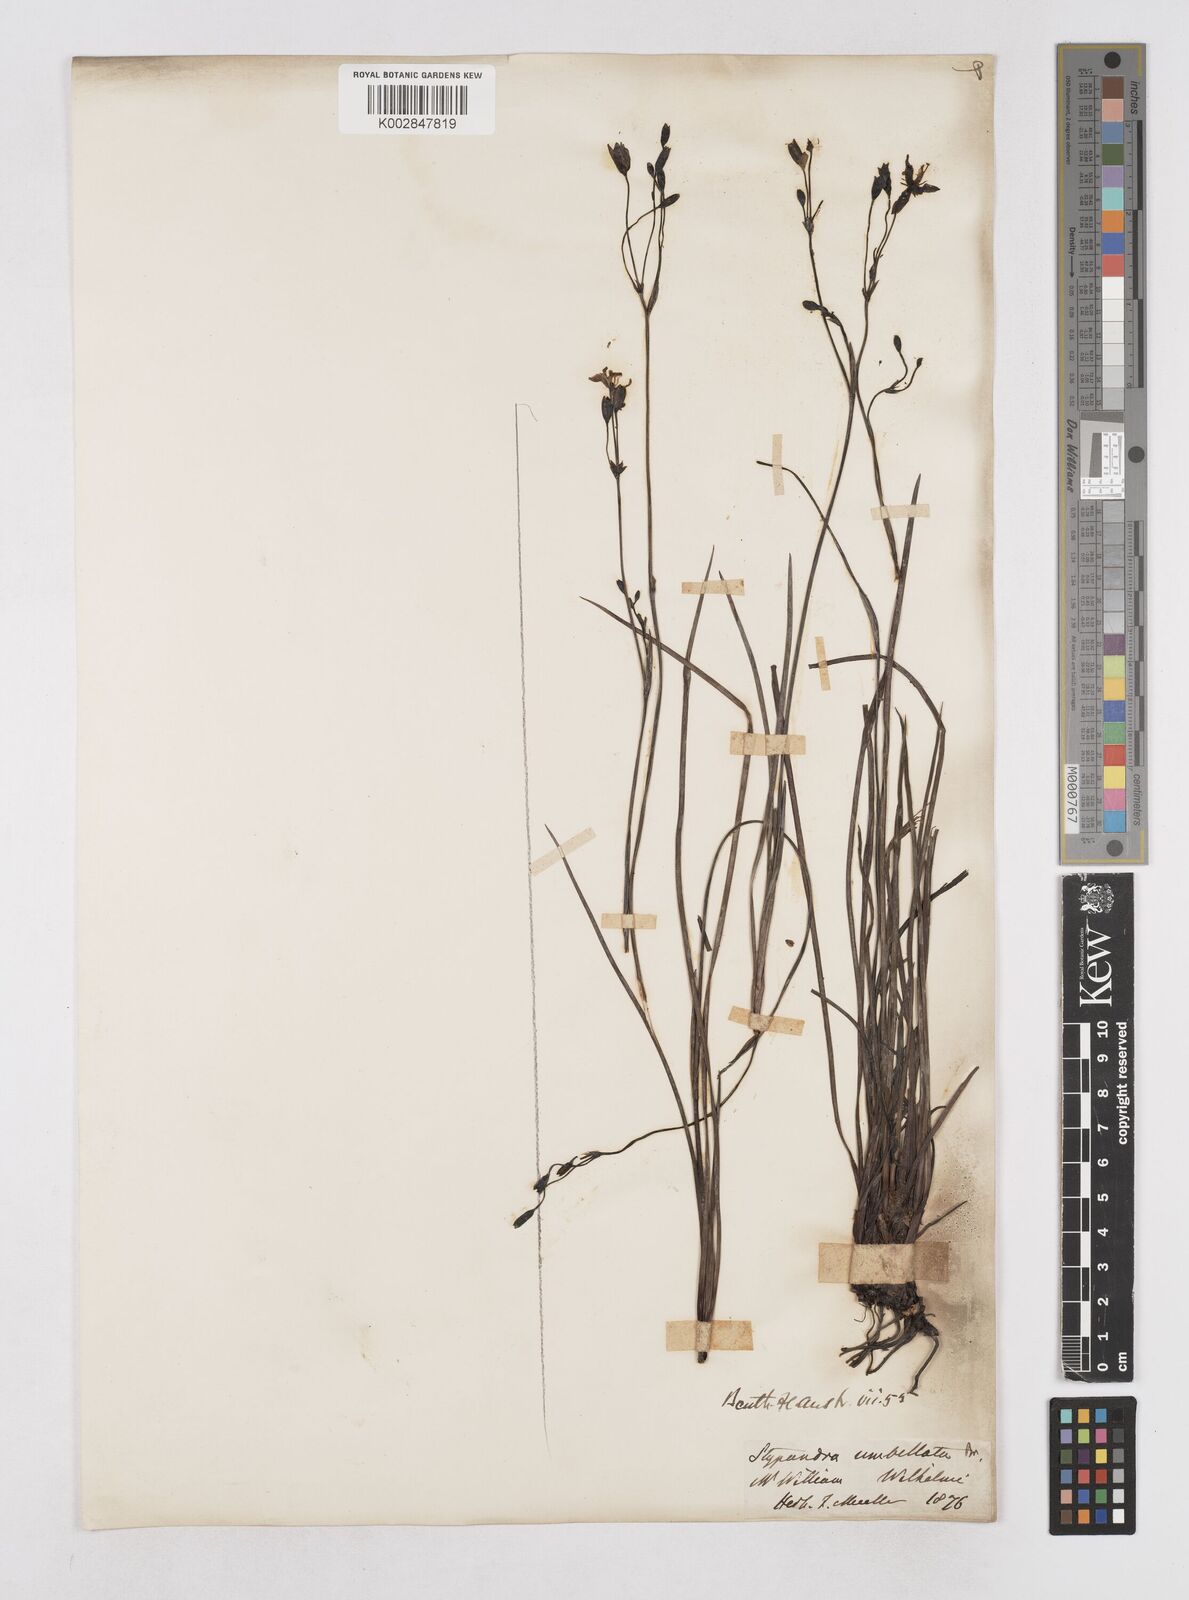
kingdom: Plantae
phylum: Tracheophyta
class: Liliopsida
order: Asparagales
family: Asphodelaceae
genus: Thelionema
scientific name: Thelionema umbellatum
